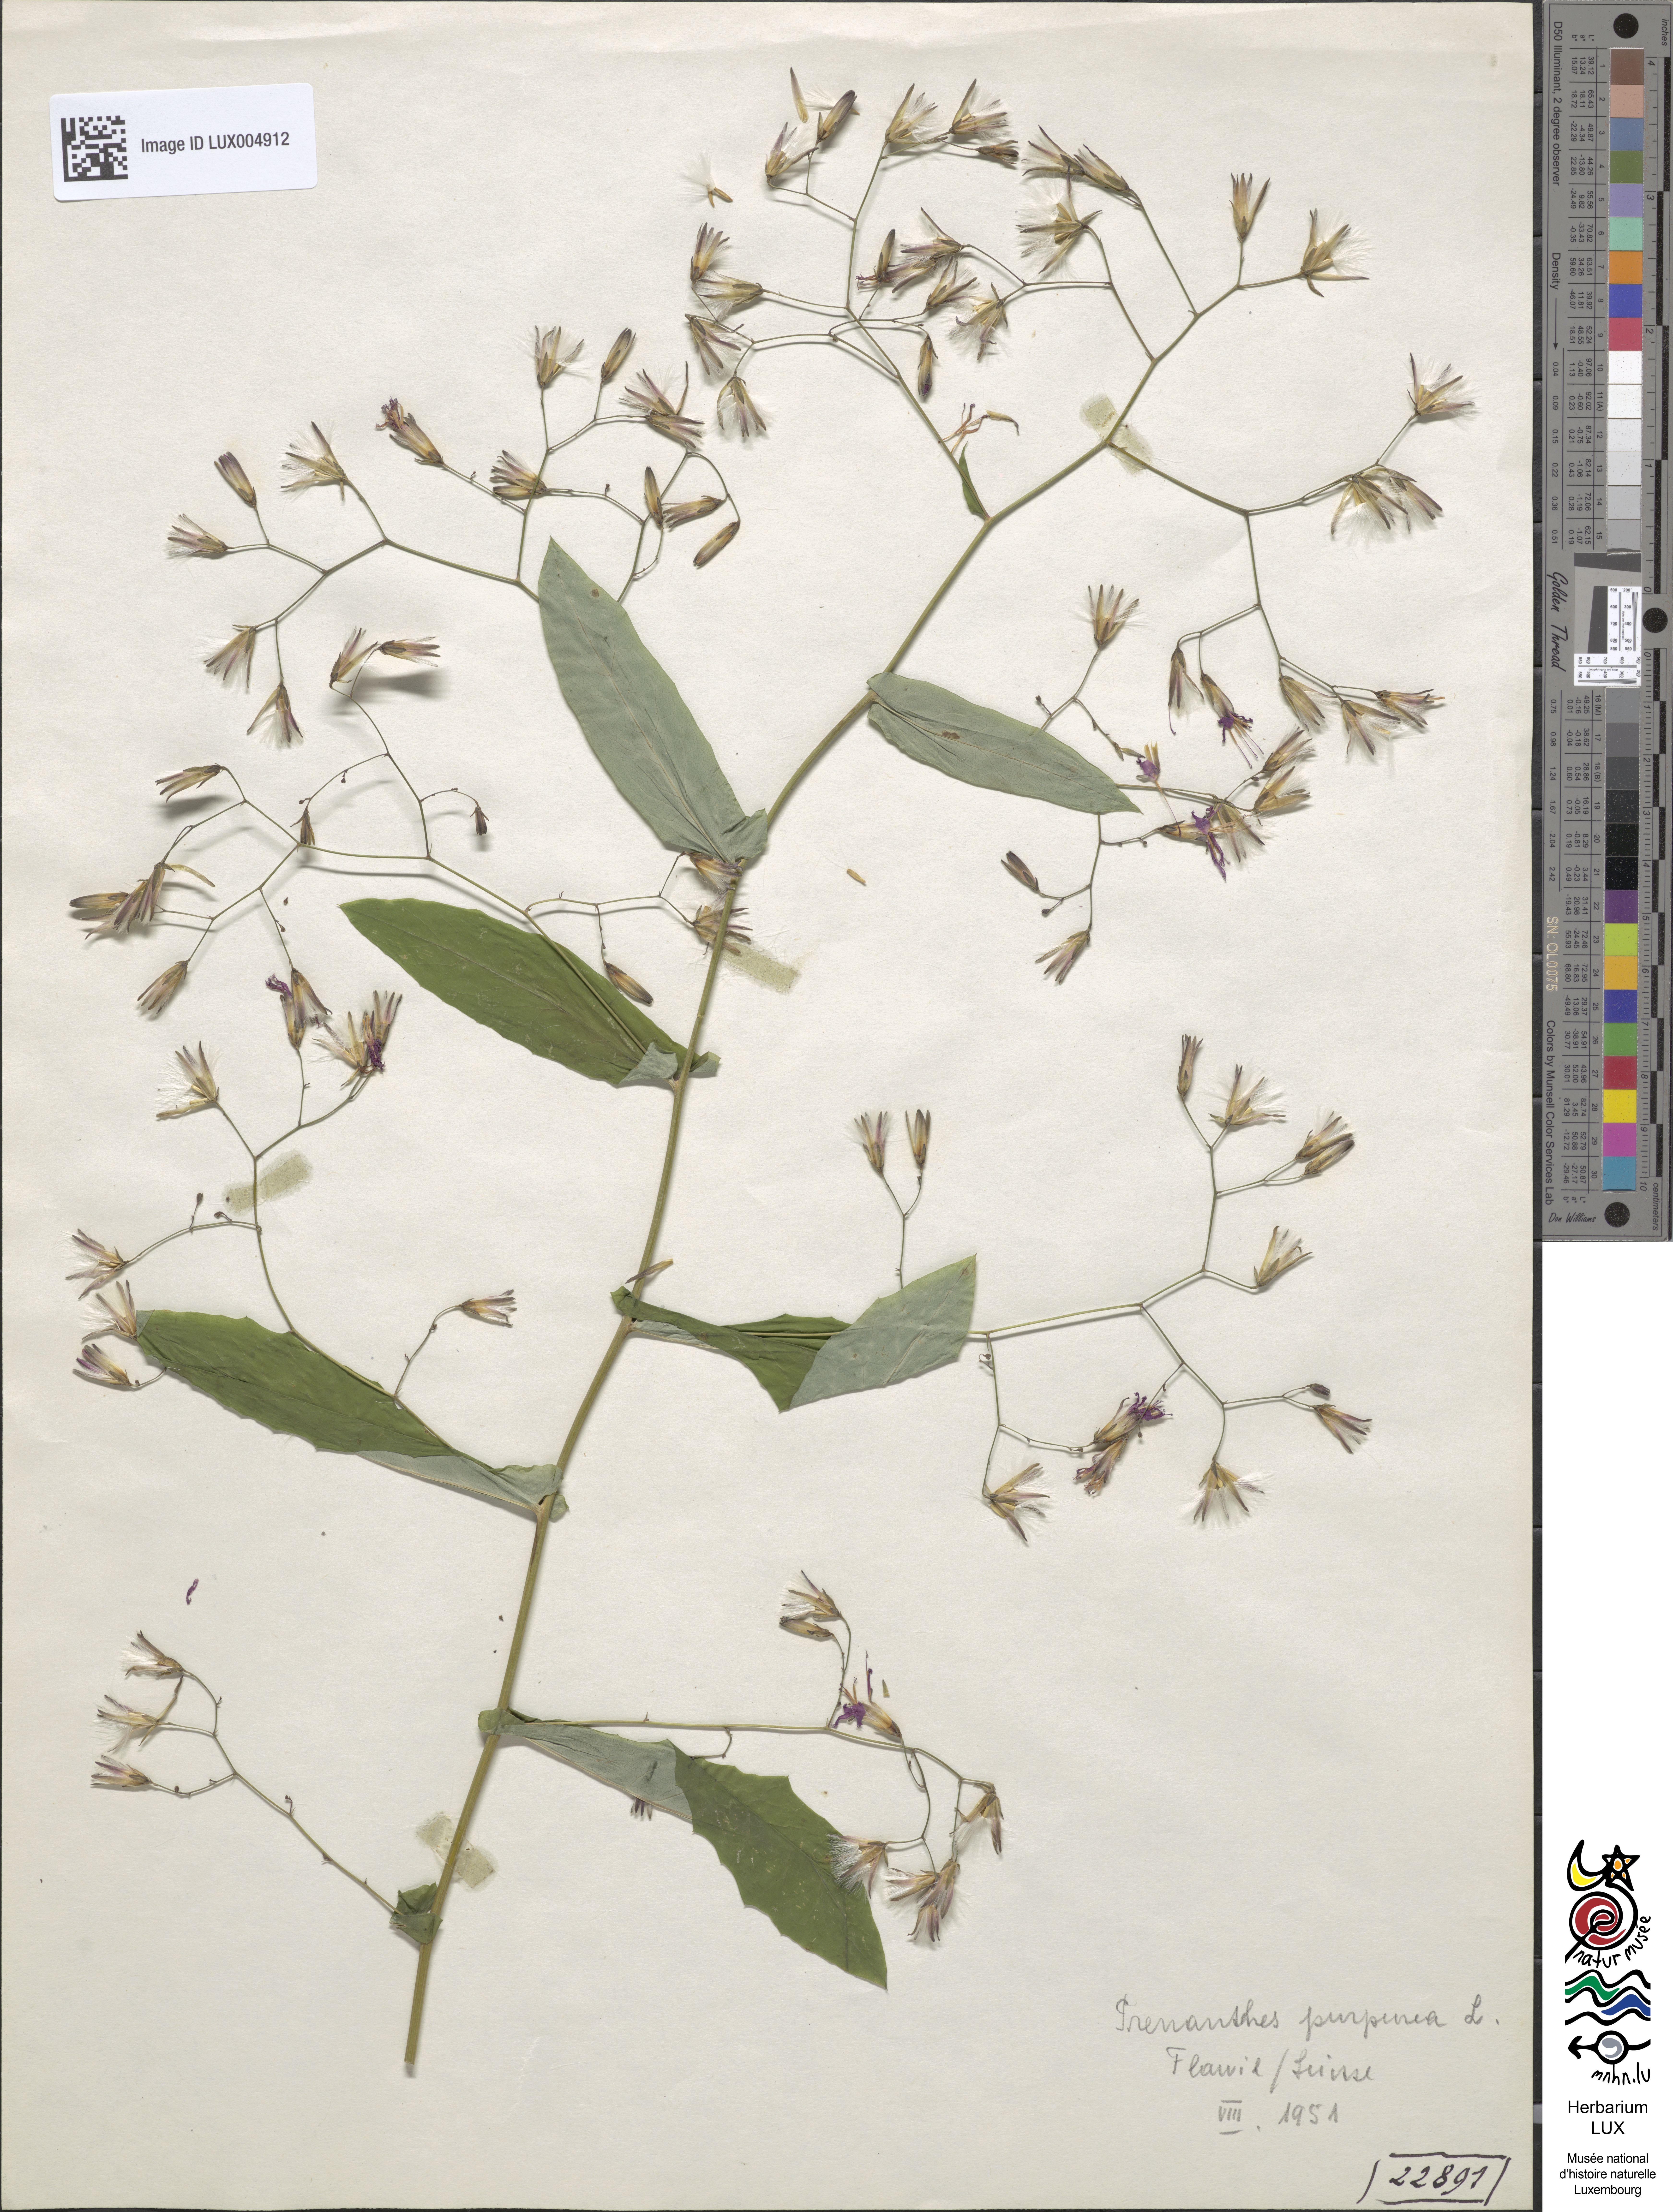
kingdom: Plantae
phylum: Tracheophyta
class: Magnoliopsida
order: Asterales
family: Asteraceae
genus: Prenanthes
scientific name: Prenanthes purpurea
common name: Purple lettuce
